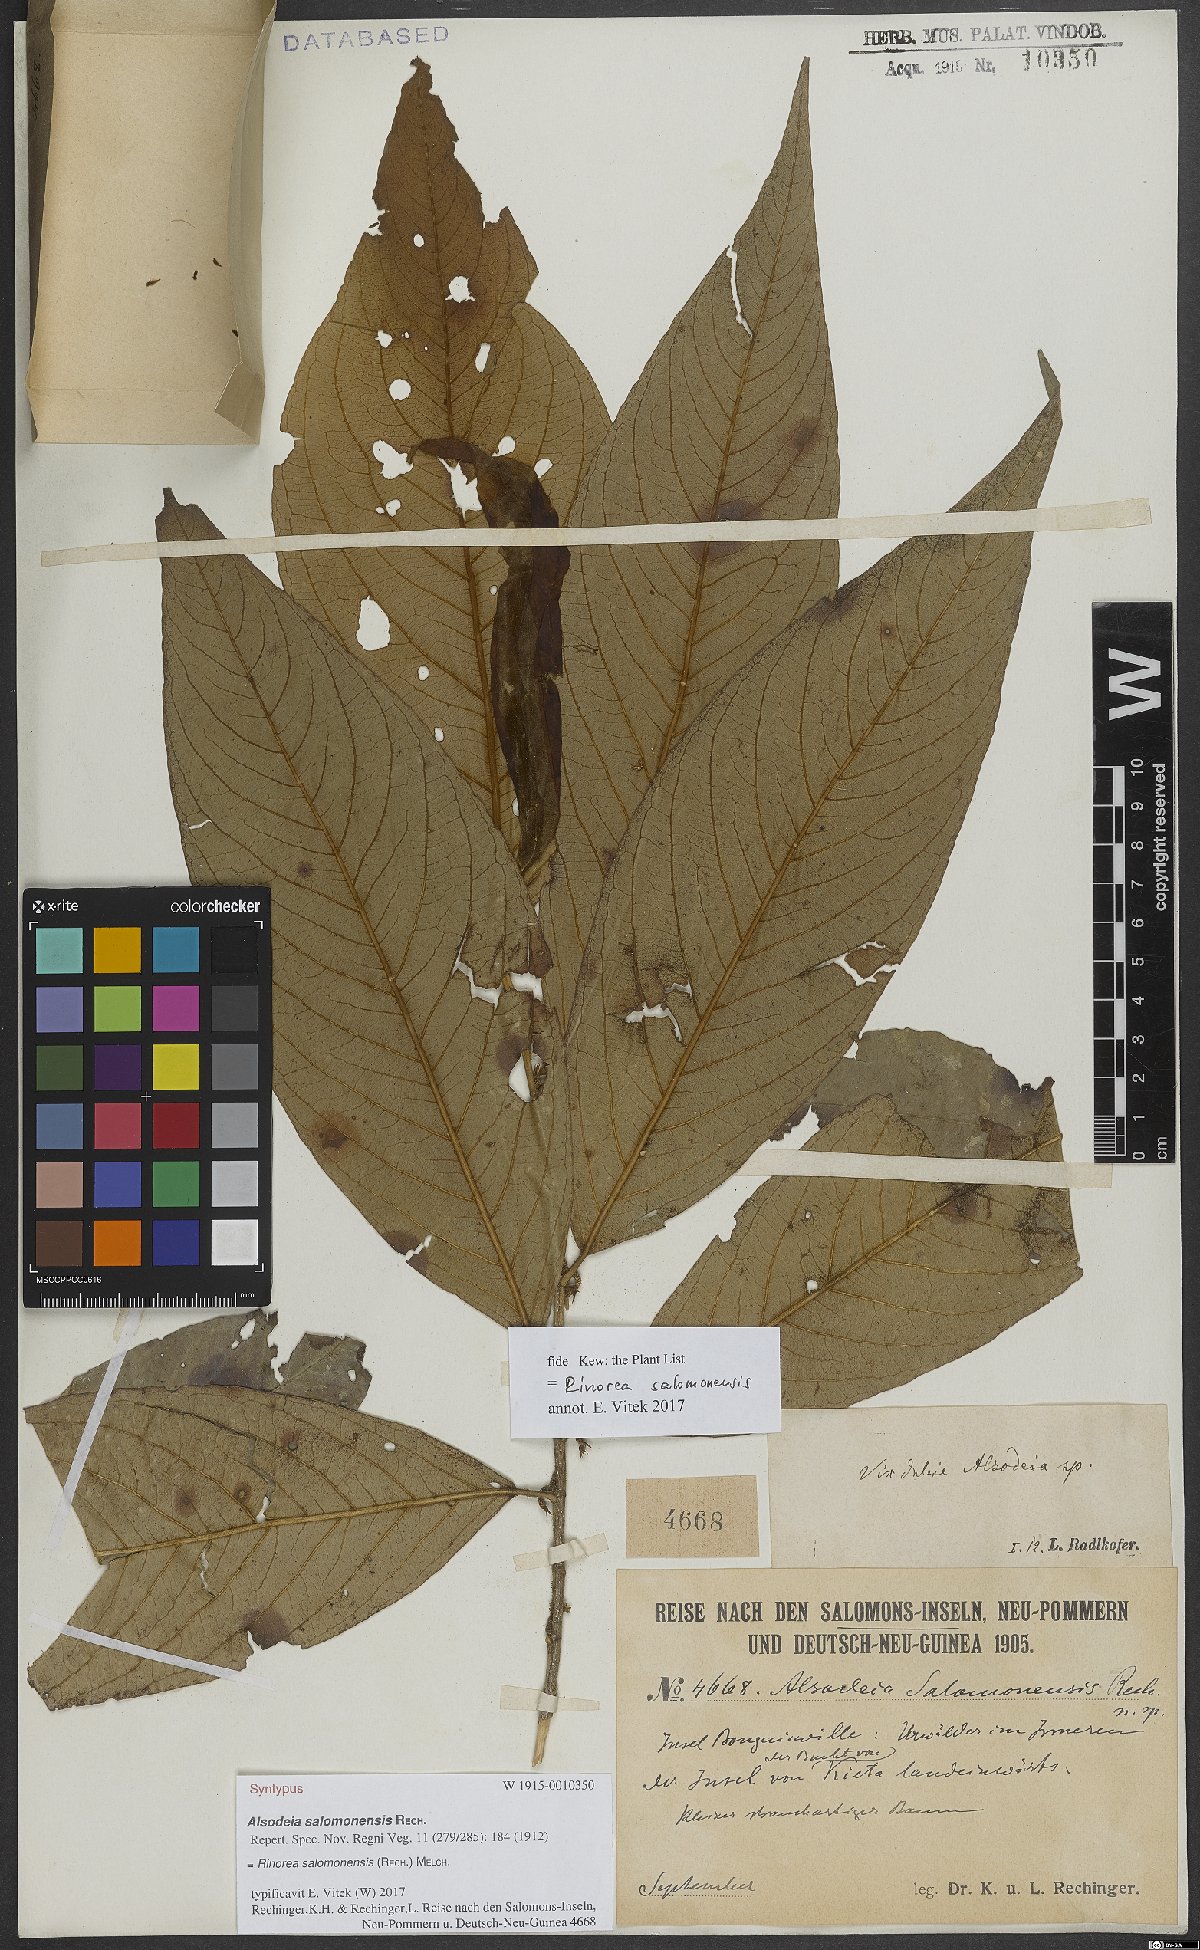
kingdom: Plantae
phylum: Tracheophyta
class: Magnoliopsida
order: Malpighiales
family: Violaceae
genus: Rinorea
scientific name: Rinorea bengalensis
